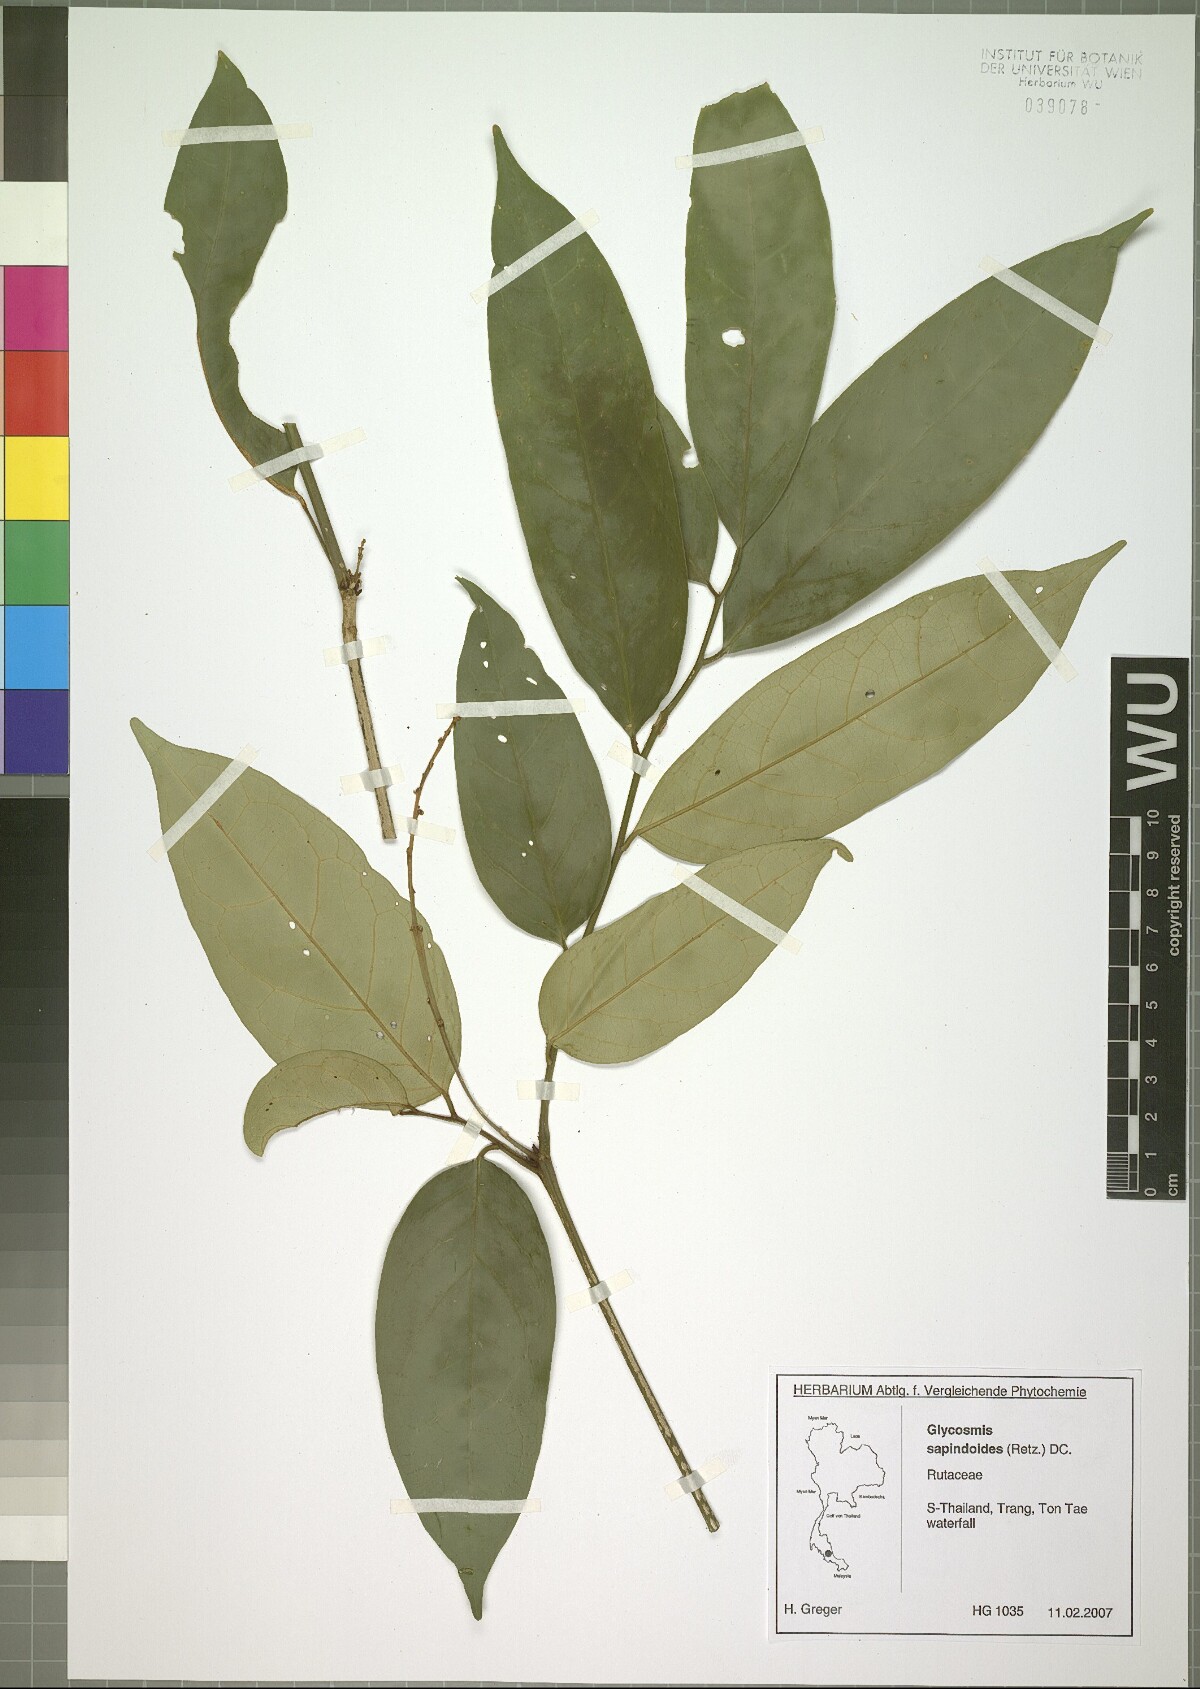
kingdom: Plantae
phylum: Tracheophyta
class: Magnoliopsida
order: Sapindales
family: Rutaceae
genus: Glycosmis
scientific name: Glycosmis macrophylla
